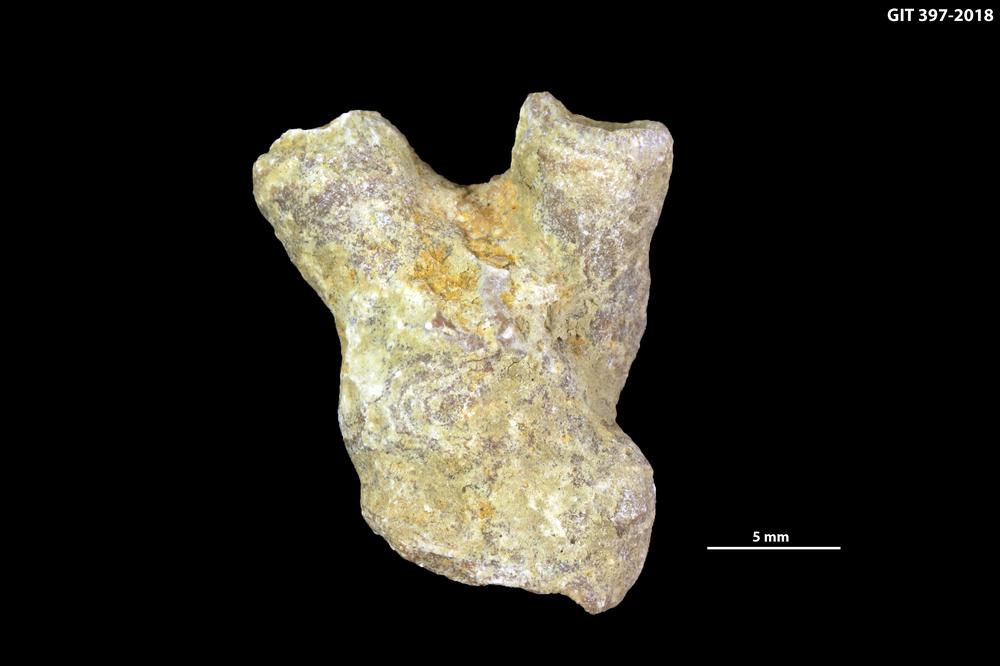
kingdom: Animalia
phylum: Cnidaria
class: Anthozoa
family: Cystiphyllidae
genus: Microplasma
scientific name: Microplasma
